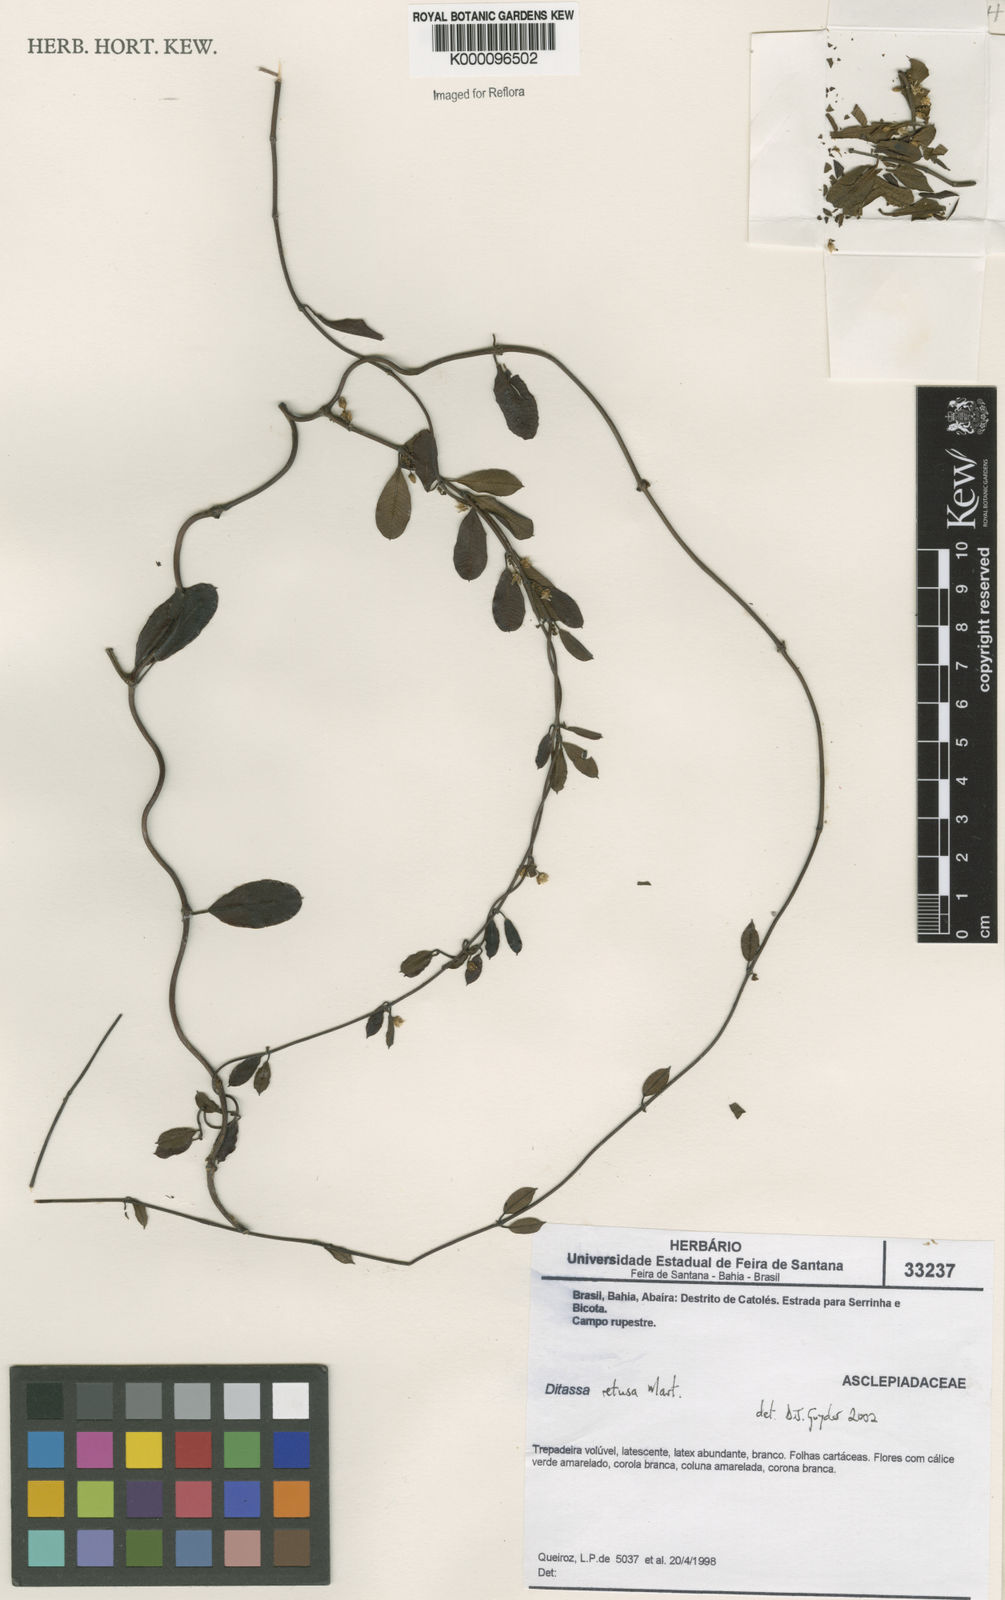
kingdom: Plantae
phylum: Tracheophyta
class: Magnoliopsida
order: Gentianales
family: Apocynaceae
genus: Ditassa
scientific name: Ditassa retusa
